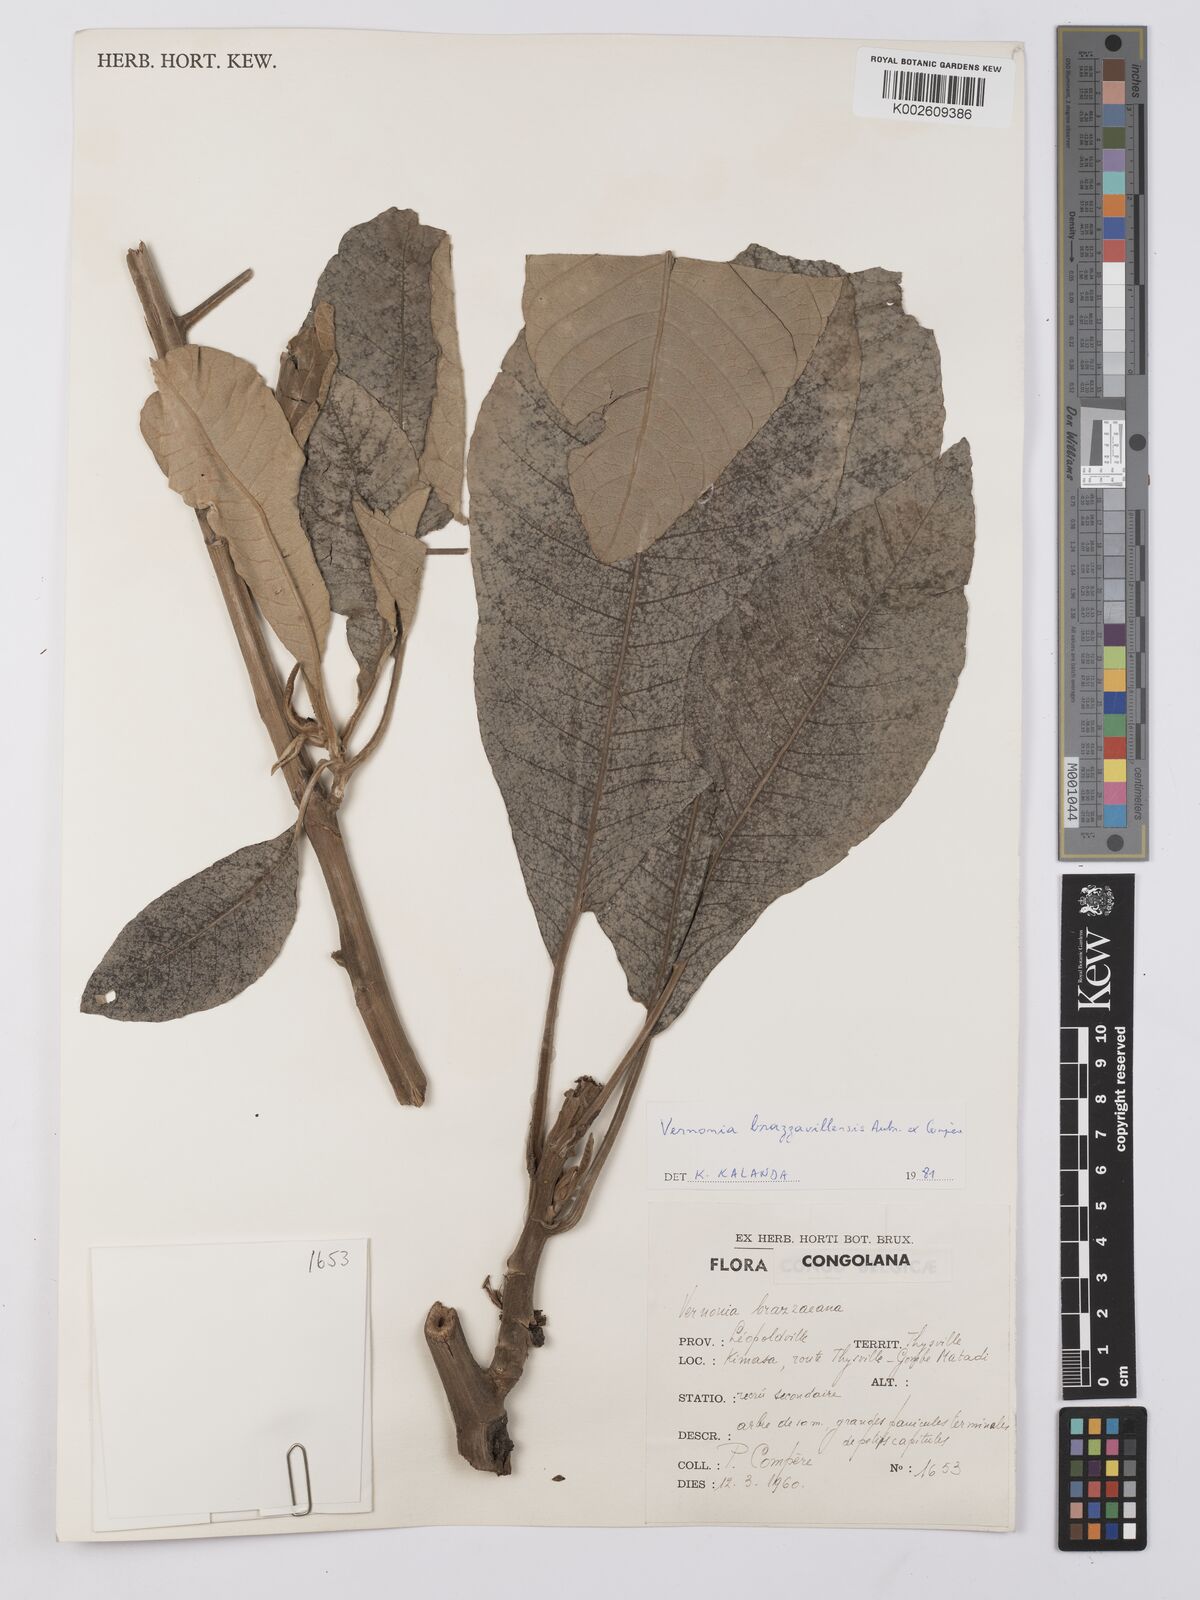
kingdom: Plantae
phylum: Tracheophyta
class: Magnoliopsida
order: Asterales
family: Asteraceae
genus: Vernonia
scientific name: Vernonia brazzavillensis
